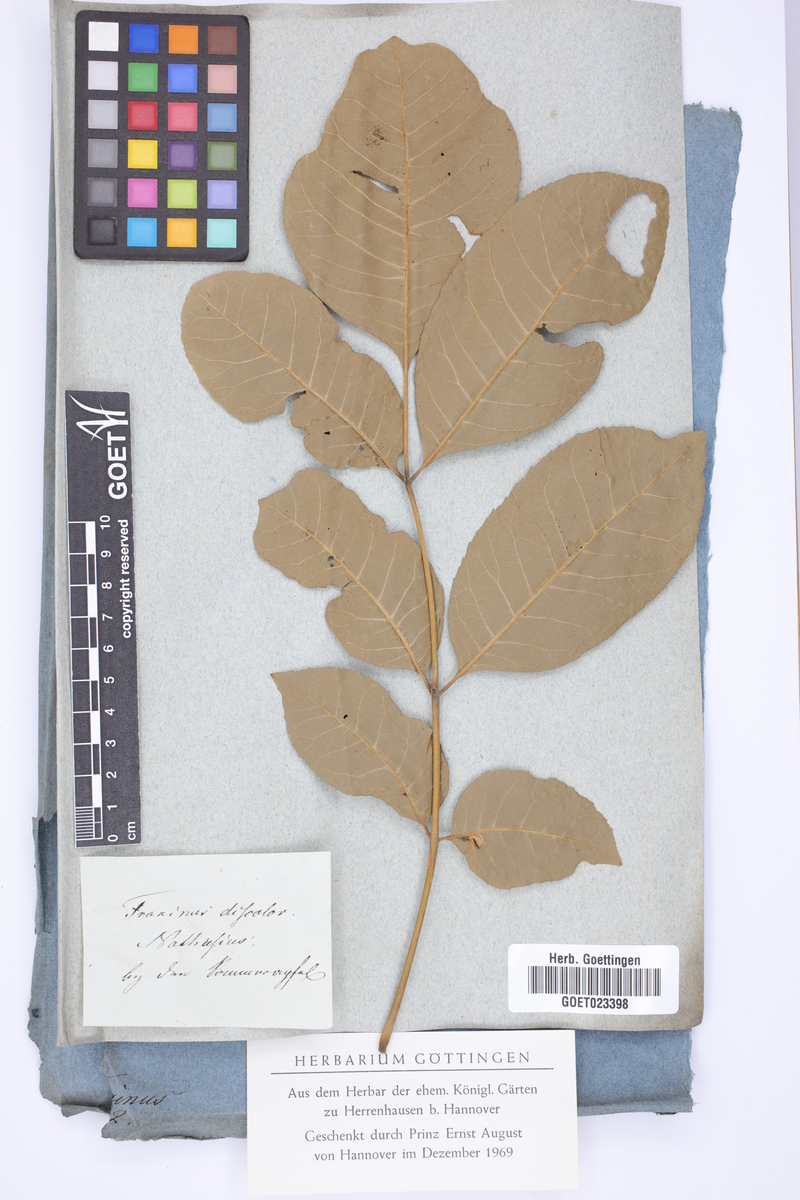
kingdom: Plantae
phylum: Tracheophyta
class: Magnoliopsida
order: Lamiales
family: Oleaceae
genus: Fraxinus
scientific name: Fraxinus americana
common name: White ash
